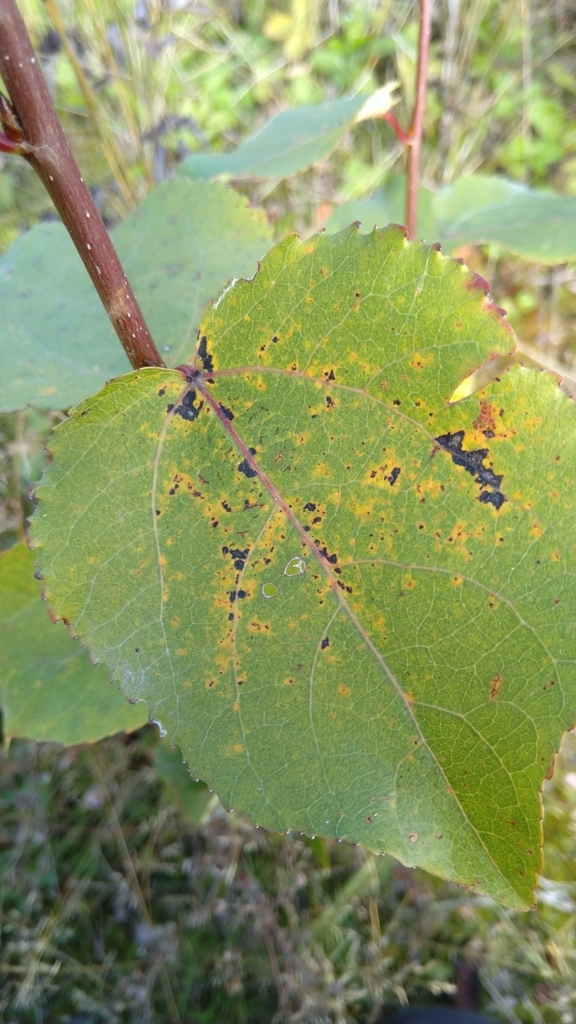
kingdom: Fungi
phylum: Basidiomycota
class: Pucciniomycetes
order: Pucciniales
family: Melampsoraceae
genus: Melampsora
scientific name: Melampsora
